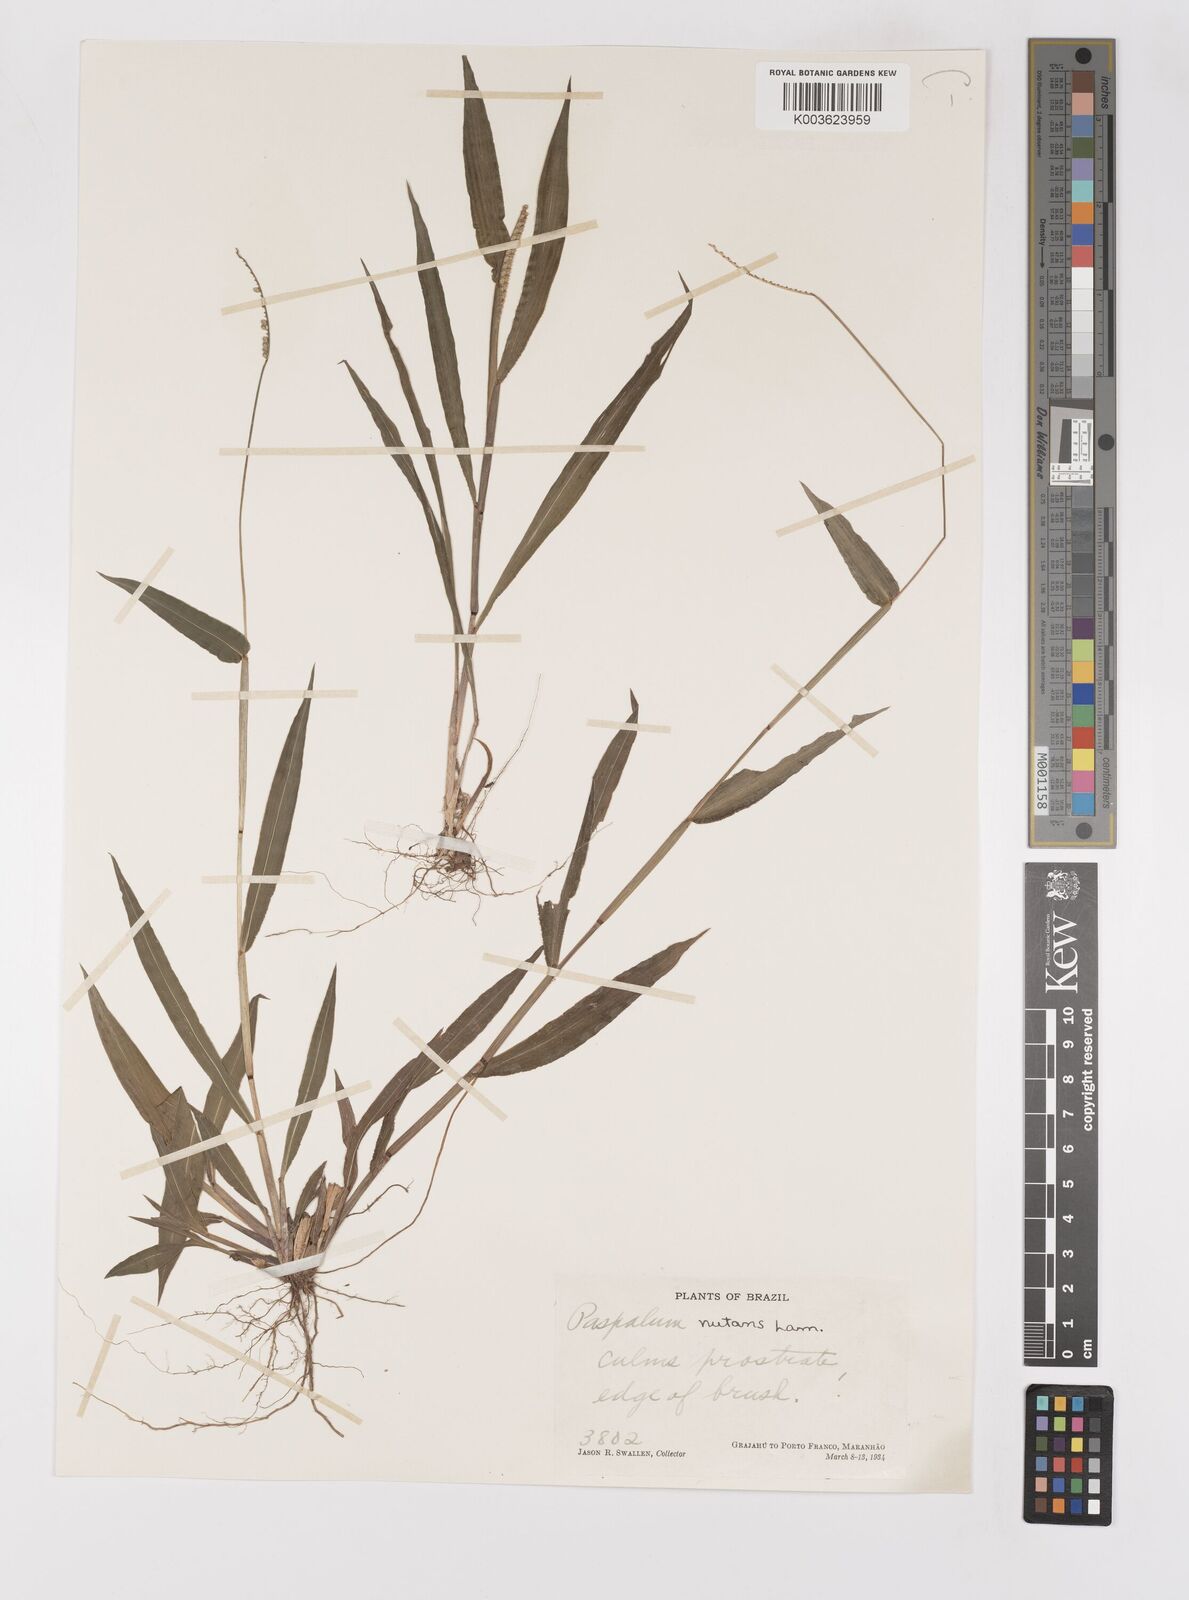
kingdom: Plantae
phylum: Tracheophyta
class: Liliopsida
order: Poales
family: Poaceae
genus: Paspalum
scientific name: Paspalum nutans
